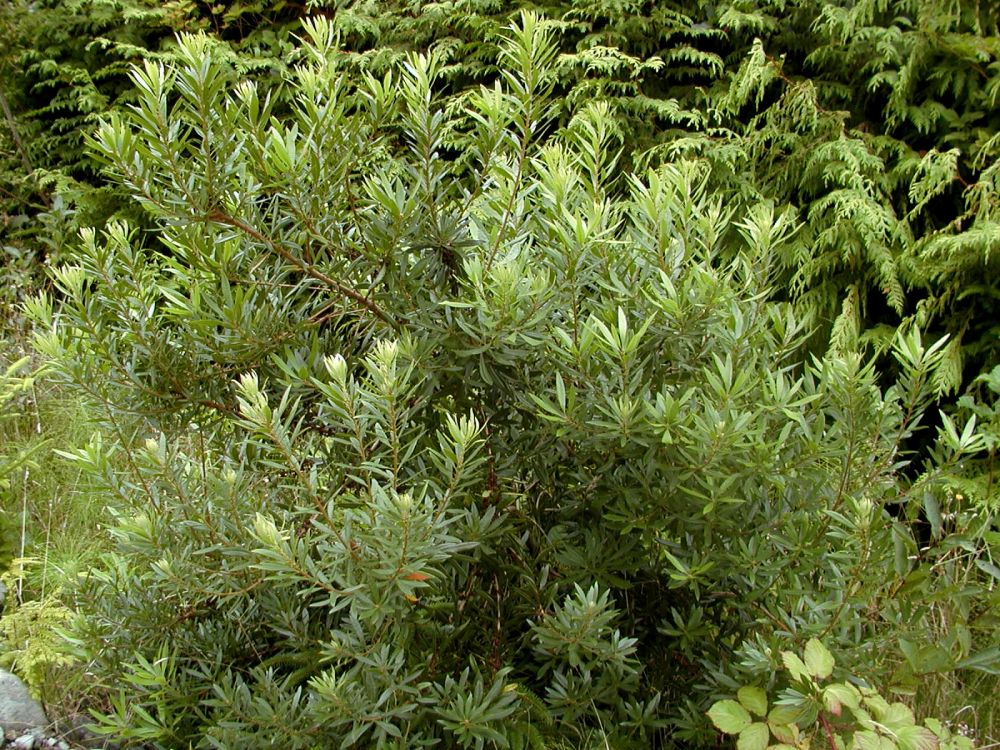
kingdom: Plantae
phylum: Tracheophyta
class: Magnoliopsida
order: Fagales
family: Myricaceae
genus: Morella
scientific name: Morella californica
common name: California wax-myrtle
